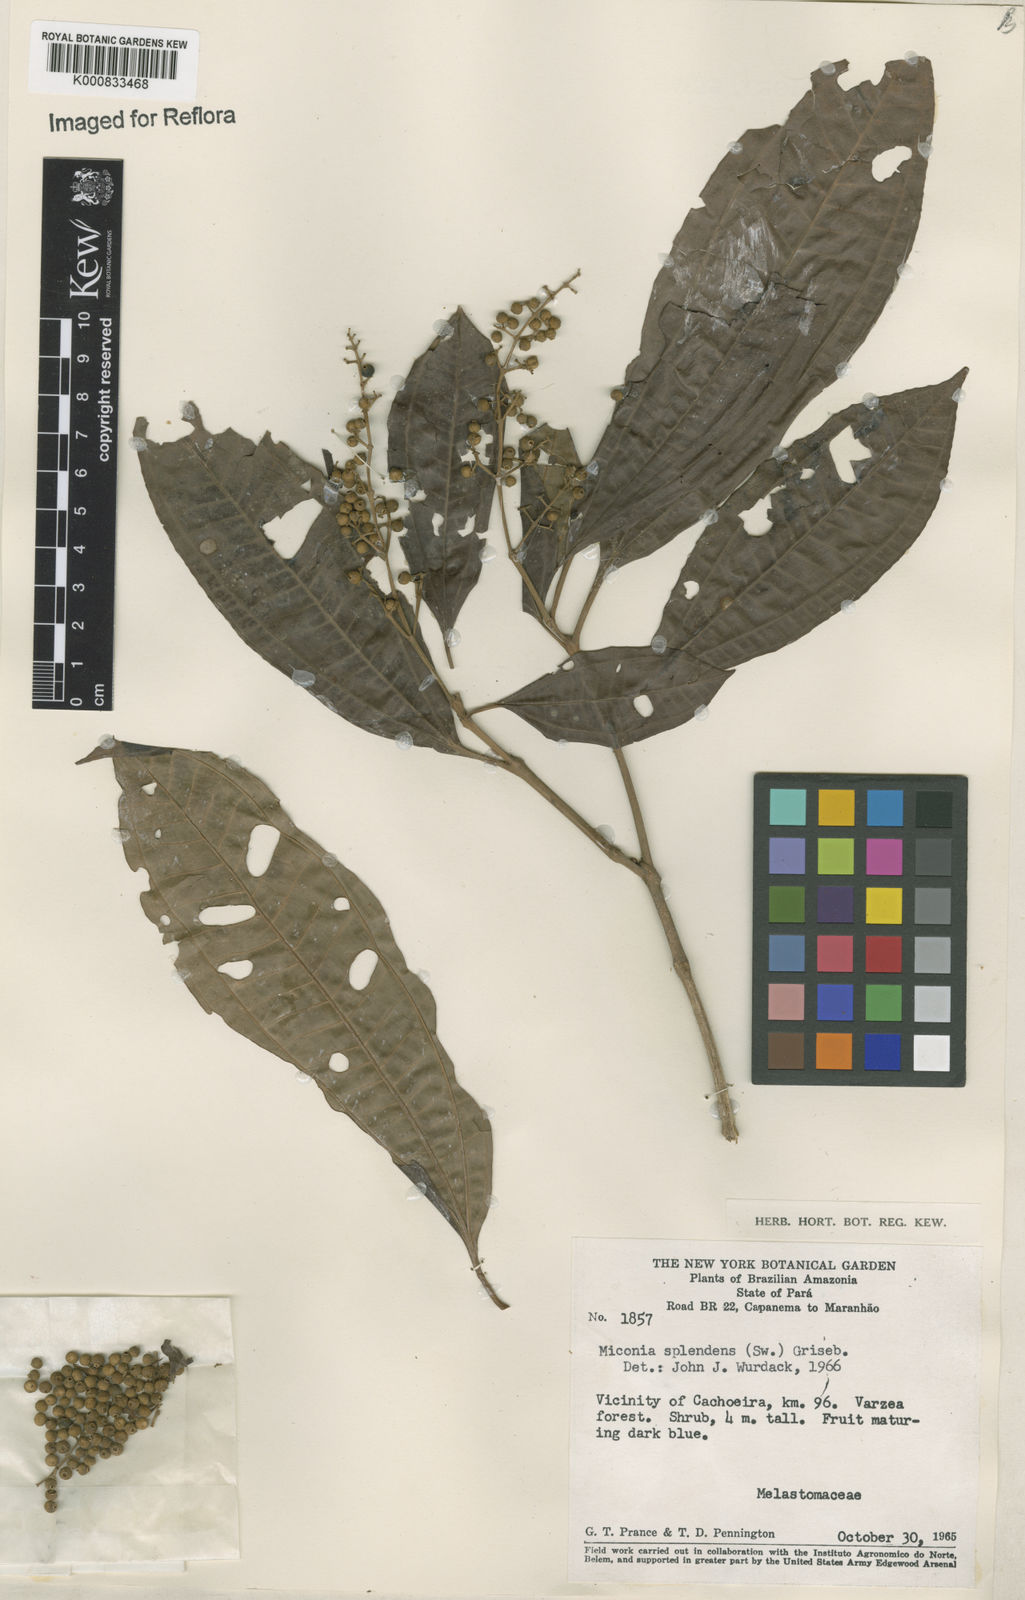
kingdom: Plantae
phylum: Tracheophyta
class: Magnoliopsida
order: Myrtales
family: Melastomataceae
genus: Miconia
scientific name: Miconia splendens
